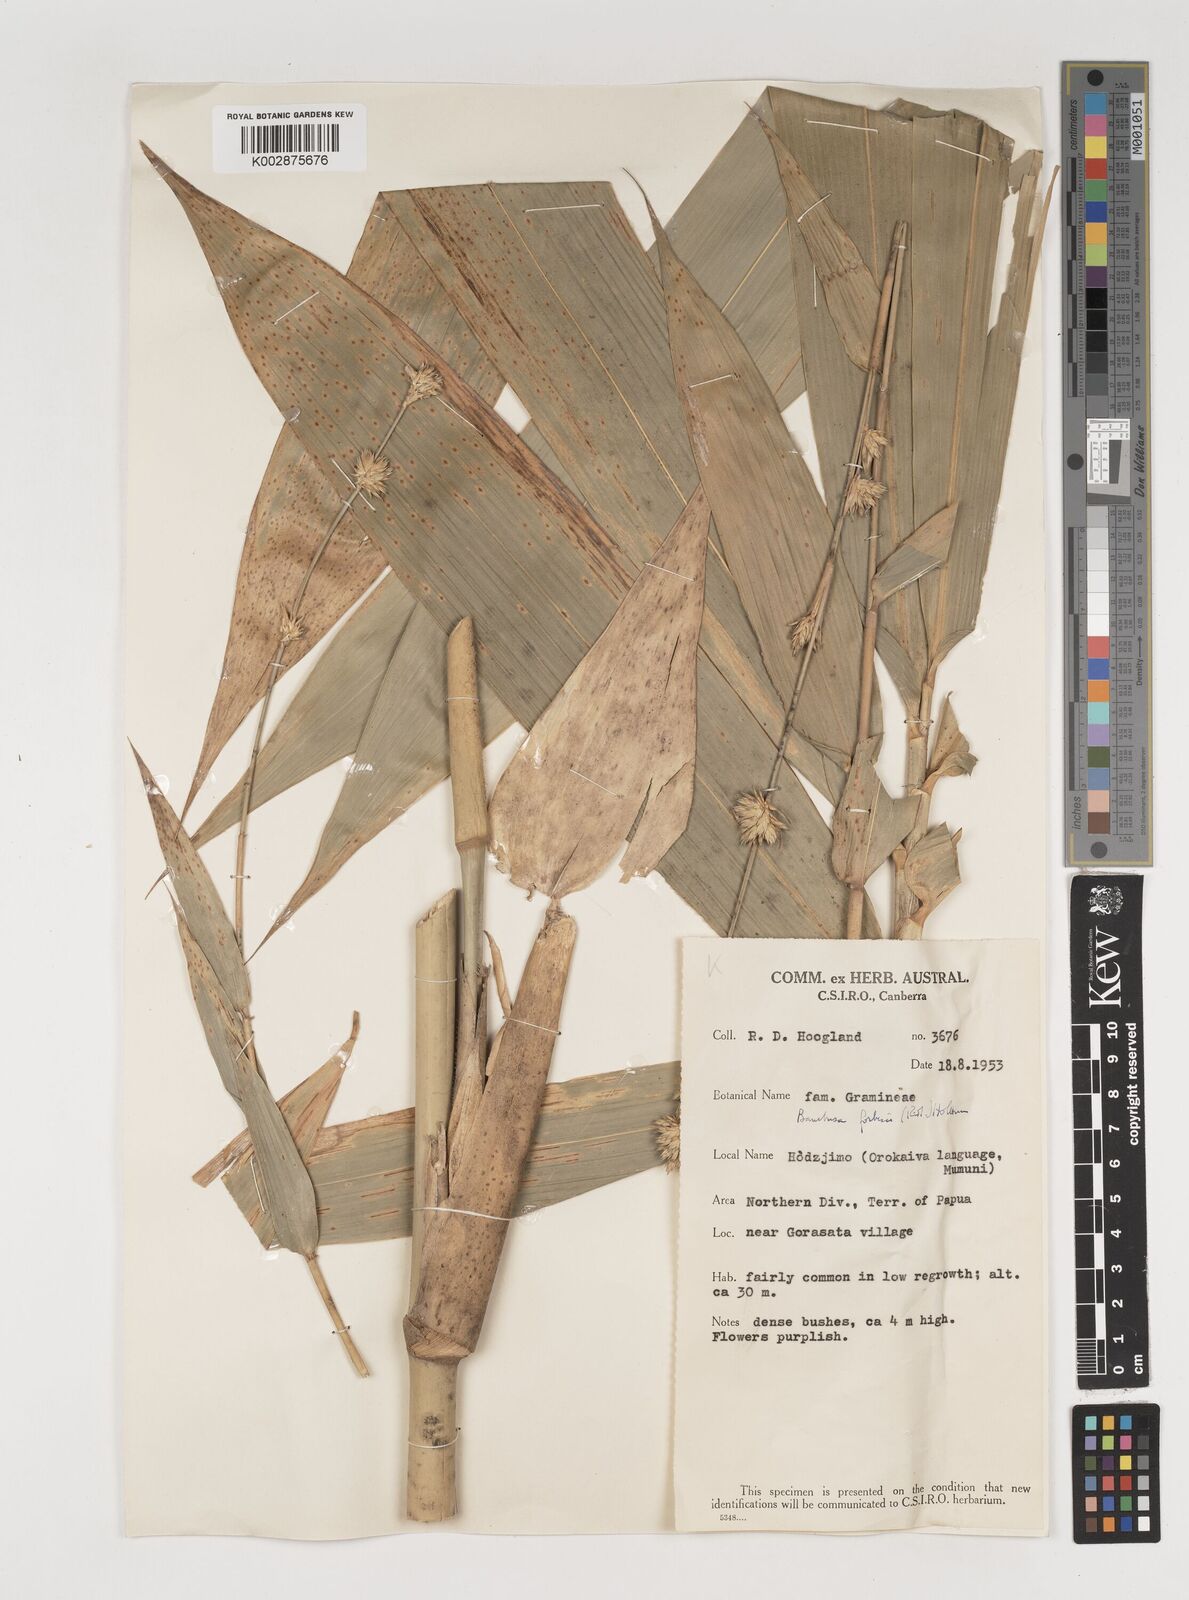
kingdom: Plantae
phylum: Tracheophyta
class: Liliopsida
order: Poales
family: Poaceae
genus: Neololeba
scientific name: Neololeba
